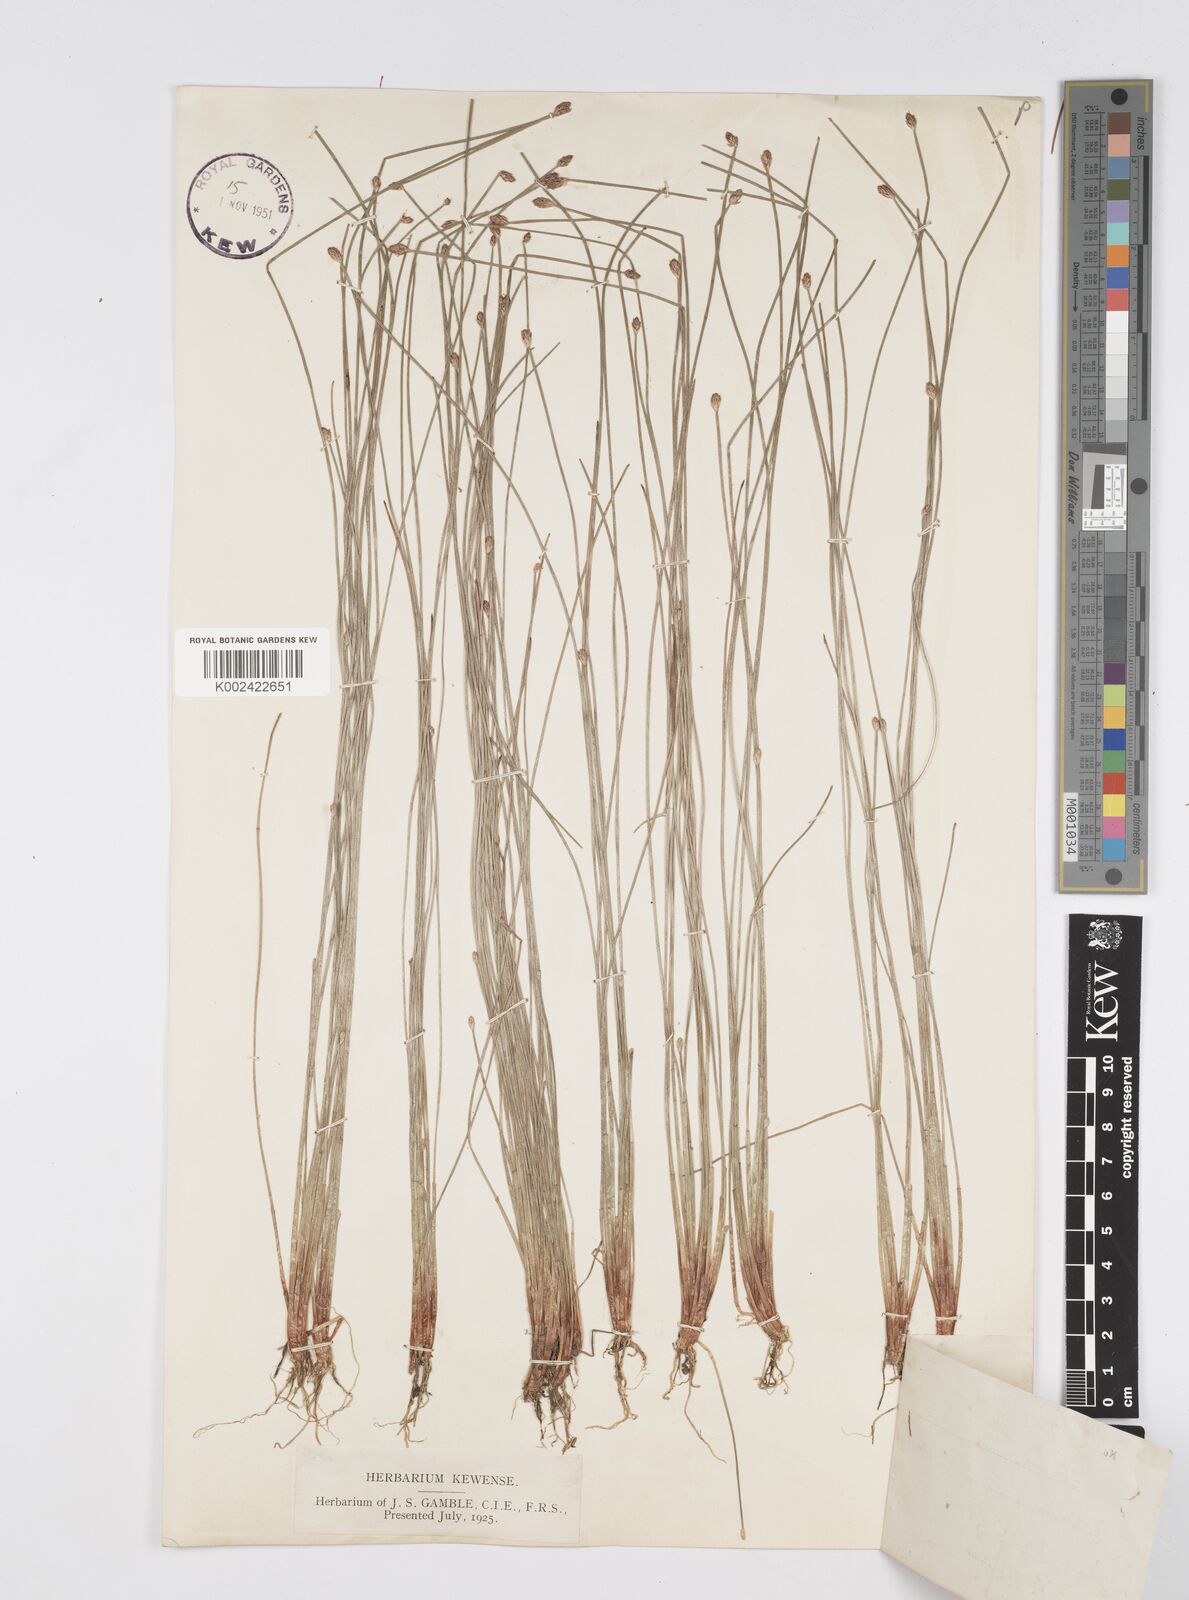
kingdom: Plantae
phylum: Tracheophyta
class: Liliopsida
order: Poales
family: Cyperaceae
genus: Eleocharis
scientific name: Eleocharis pellucida
